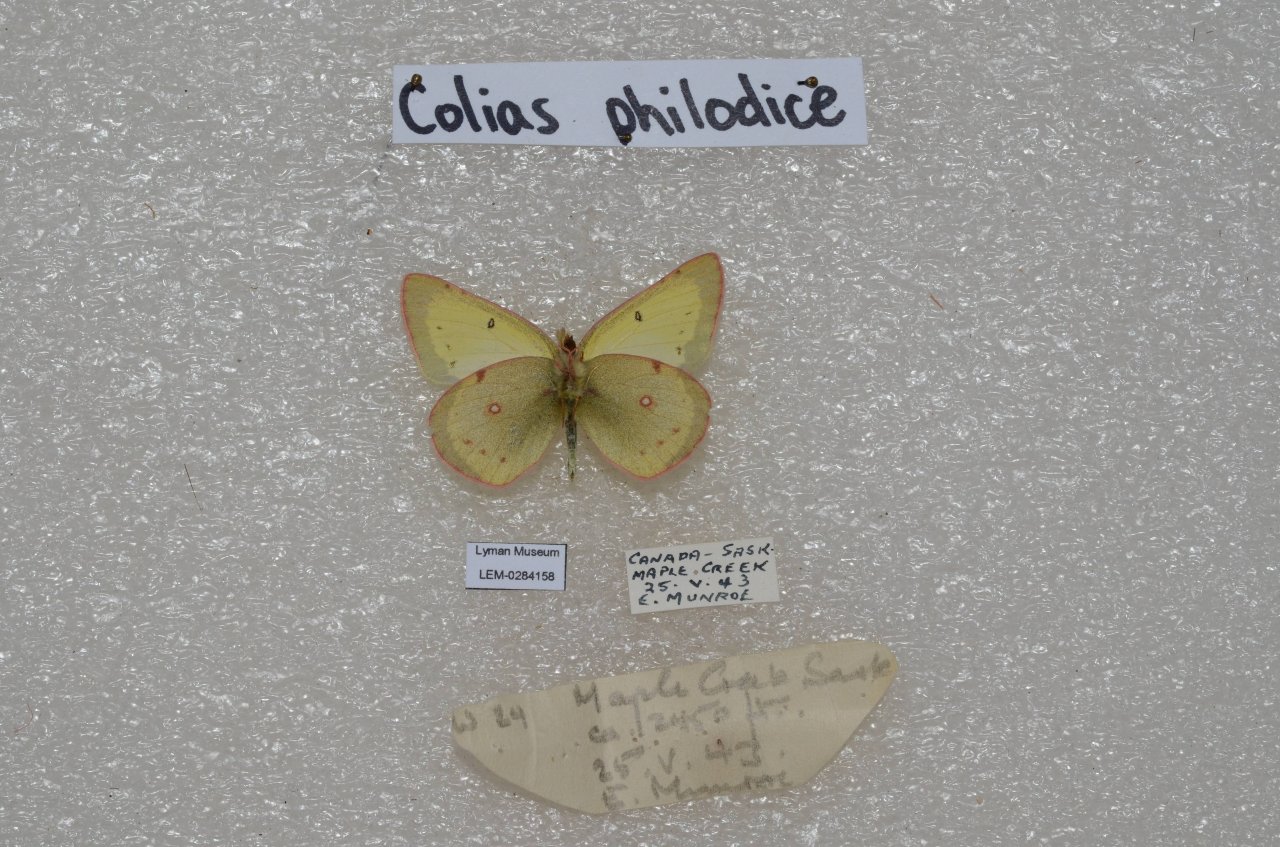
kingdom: Animalia
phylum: Arthropoda
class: Insecta
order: Lepidoptera
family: Pieridae
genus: Colias
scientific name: Colias philodice
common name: Clouded Sulphur
